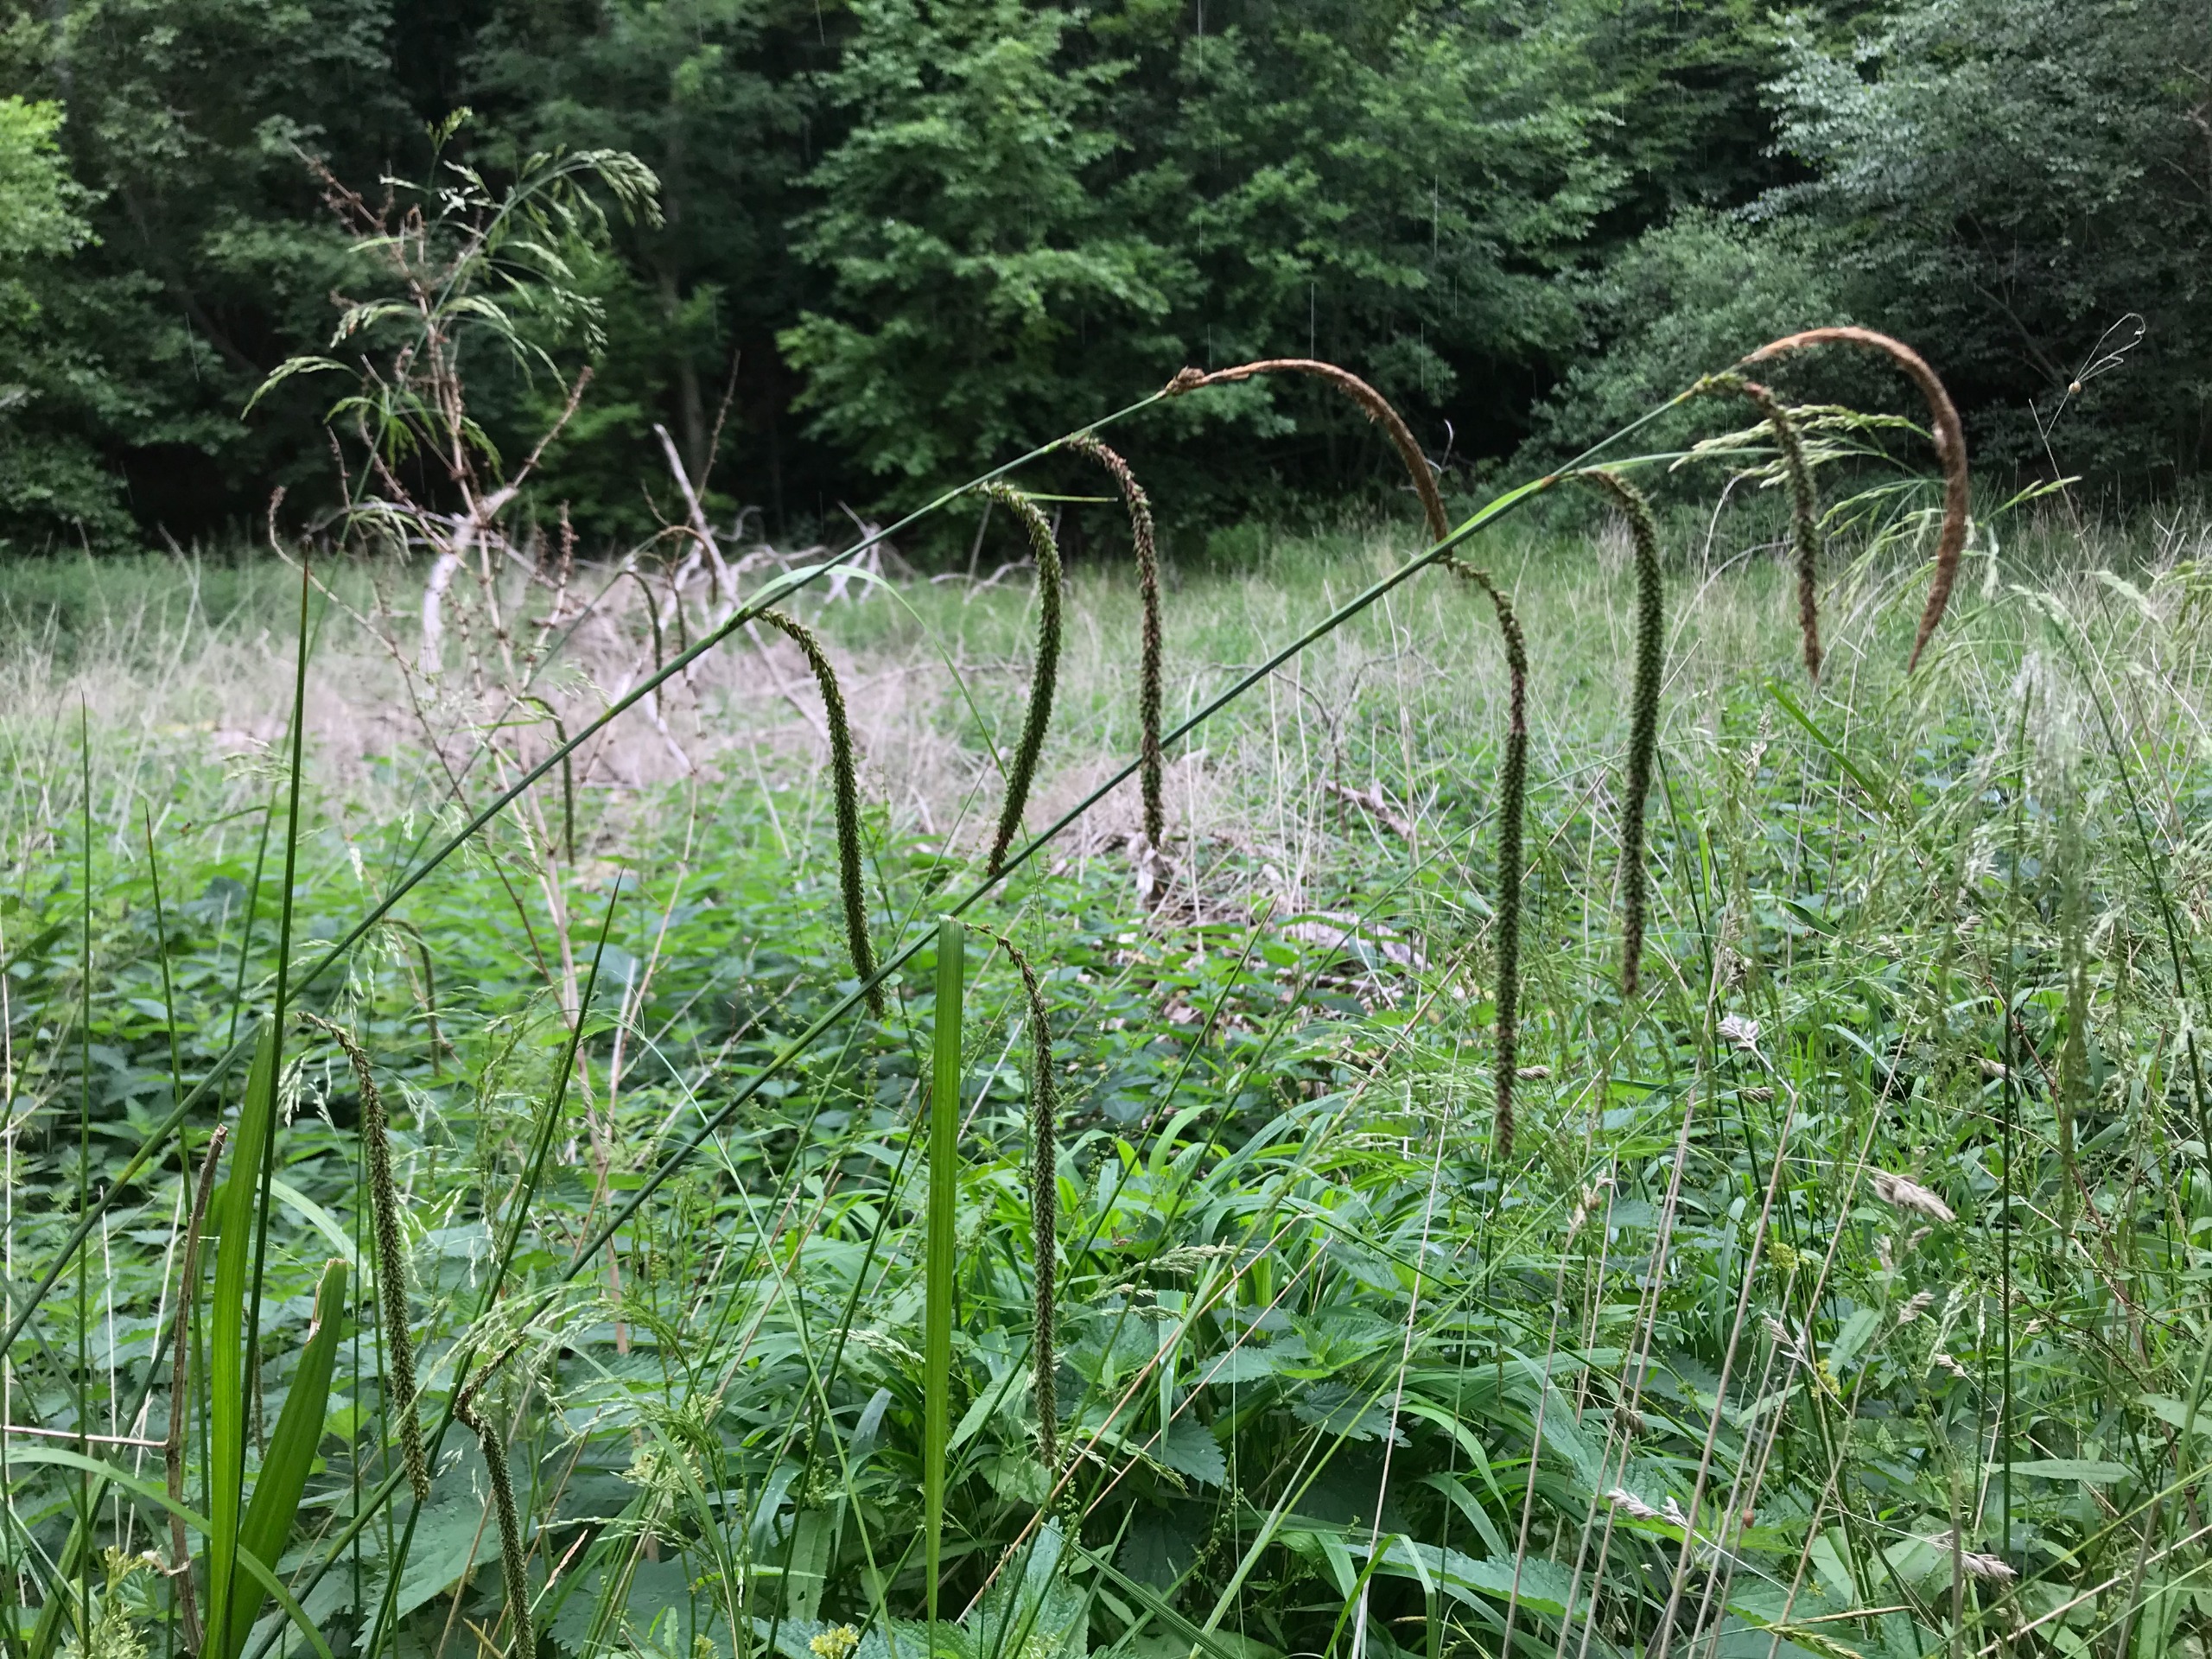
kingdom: Plantae
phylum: Tracheophyta
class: Liliopsida
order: Poales
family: Cyperaceae
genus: Carex
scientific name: Carex pendula
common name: Kæmpe-star
